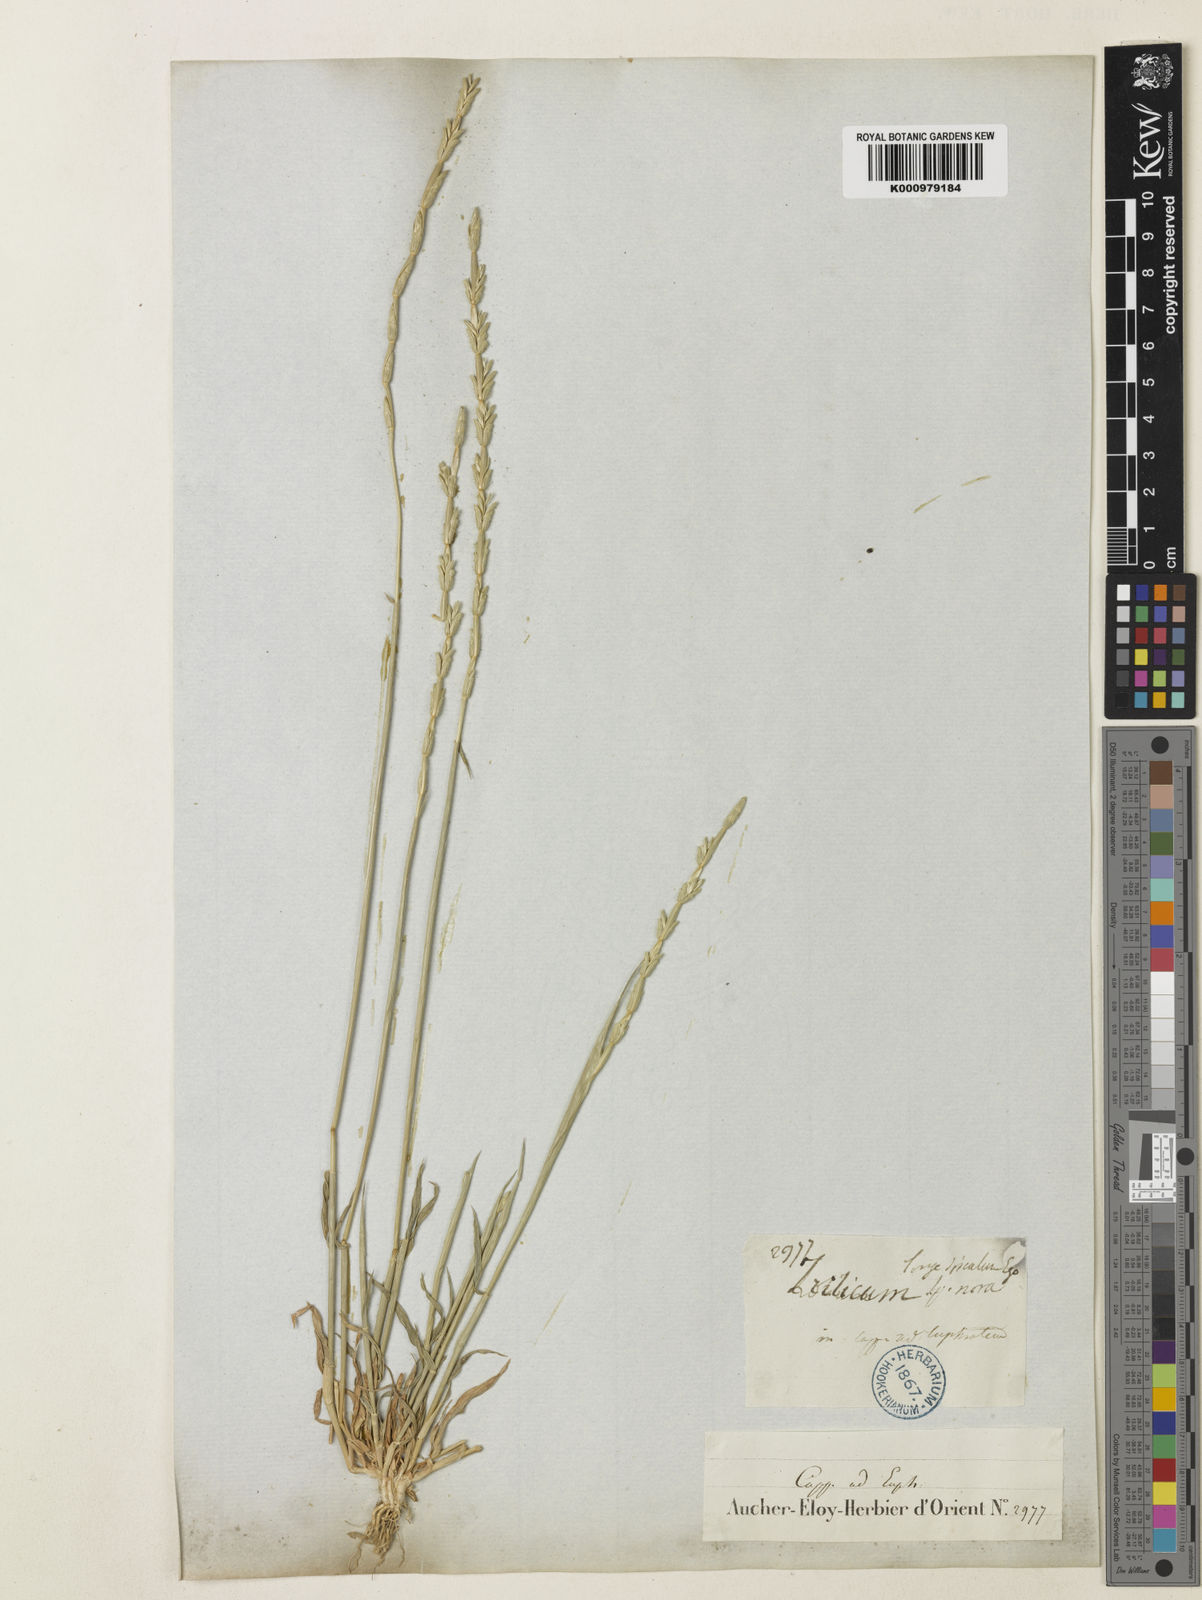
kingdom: Plantae
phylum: Tracheophyta
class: Liliopsida
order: Poales
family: Poaceae
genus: Aegilops
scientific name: Aegilops mutica
